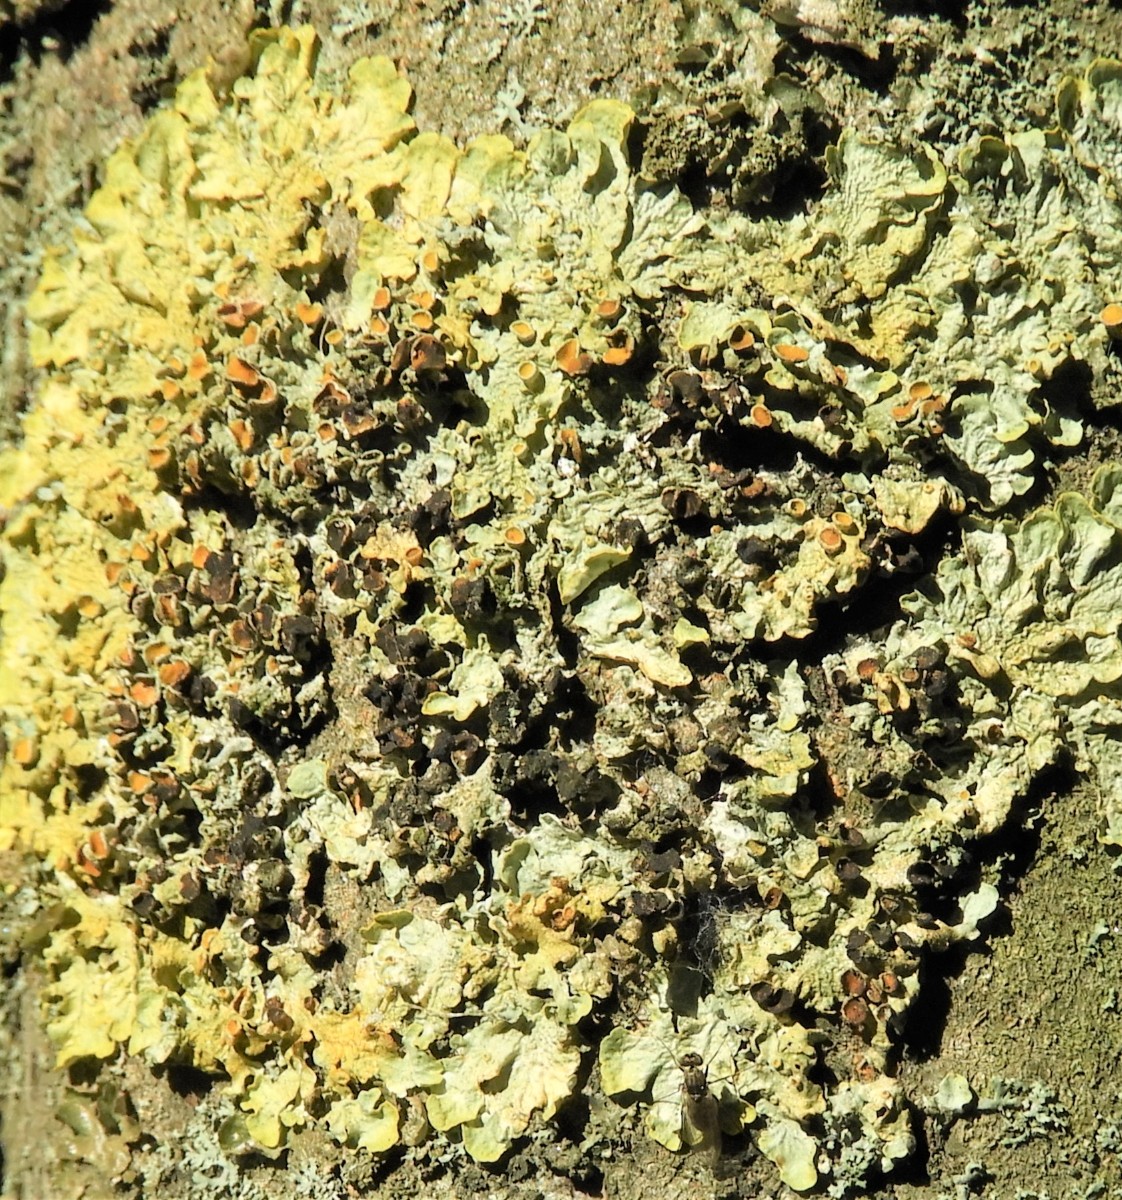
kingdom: Fungi
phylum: Ascomycota
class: Lecanoromycetes
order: Teloschistales
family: Teloschistaceae
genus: Xanthoria
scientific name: Xanthoria parietina
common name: almindelig væggelav
